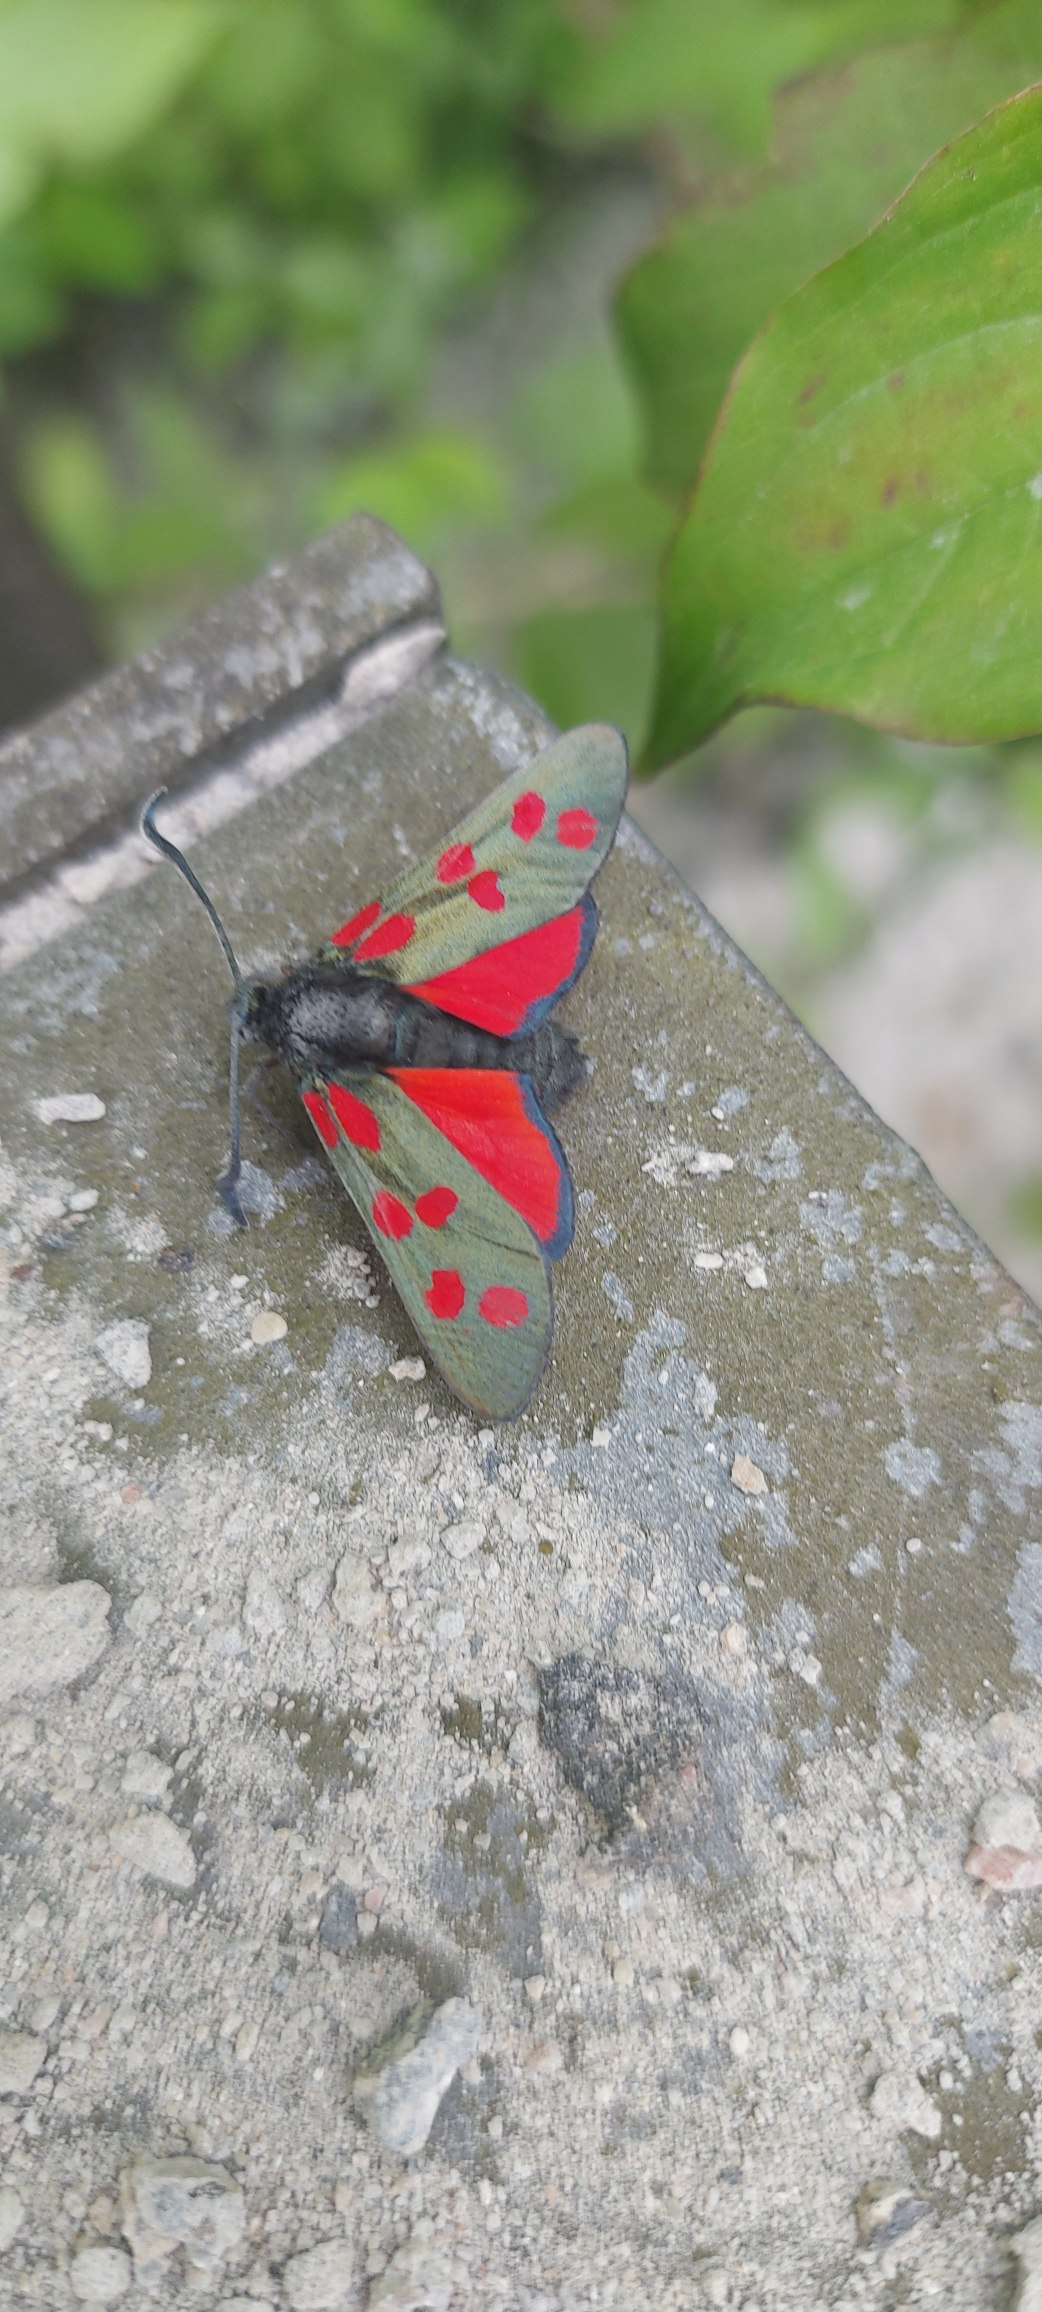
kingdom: Animalia
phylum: Arthropoda
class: Insecta
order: Lepidoptera
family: Zygaenidae
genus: Zygaena
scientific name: Zygaena filipendulae
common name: Seksplettet køllesværmer
